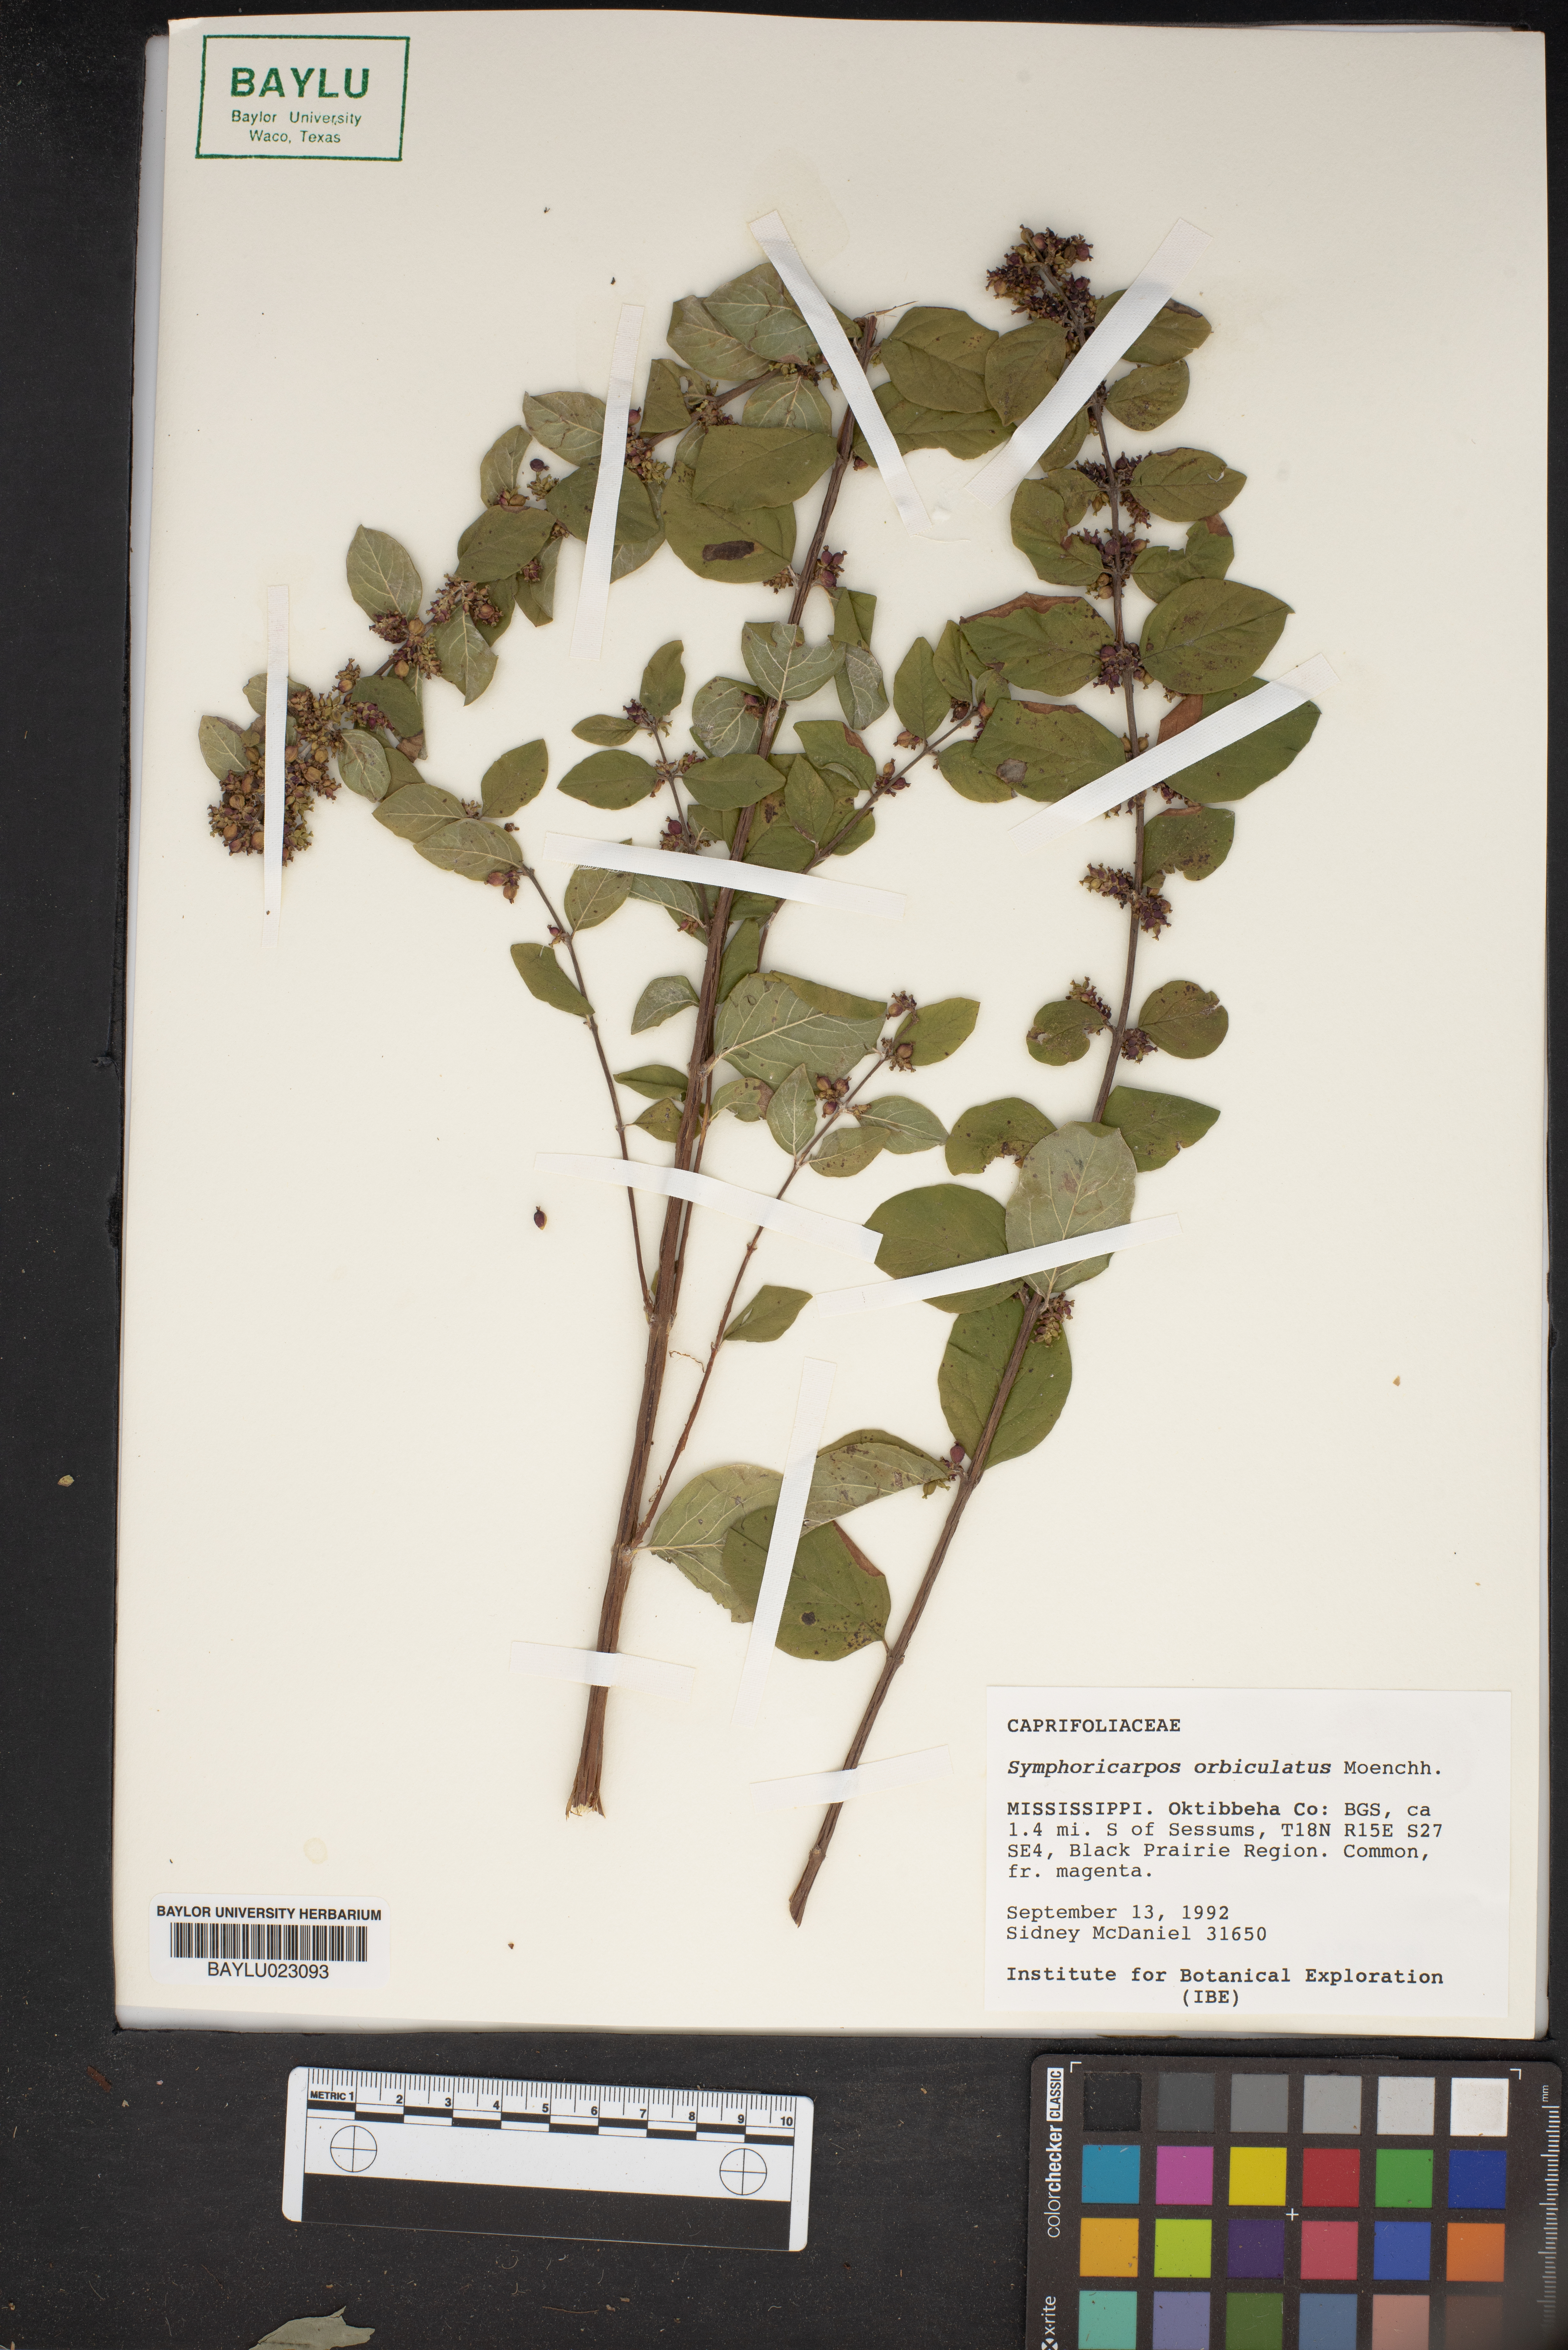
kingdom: Plantae
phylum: Tracheophyta
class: Magnoliopsida
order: Dipsacales
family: Caprifoliaceae
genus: Symphoricarpos
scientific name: Symphoricarpos orbiculatus
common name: Coralberry
